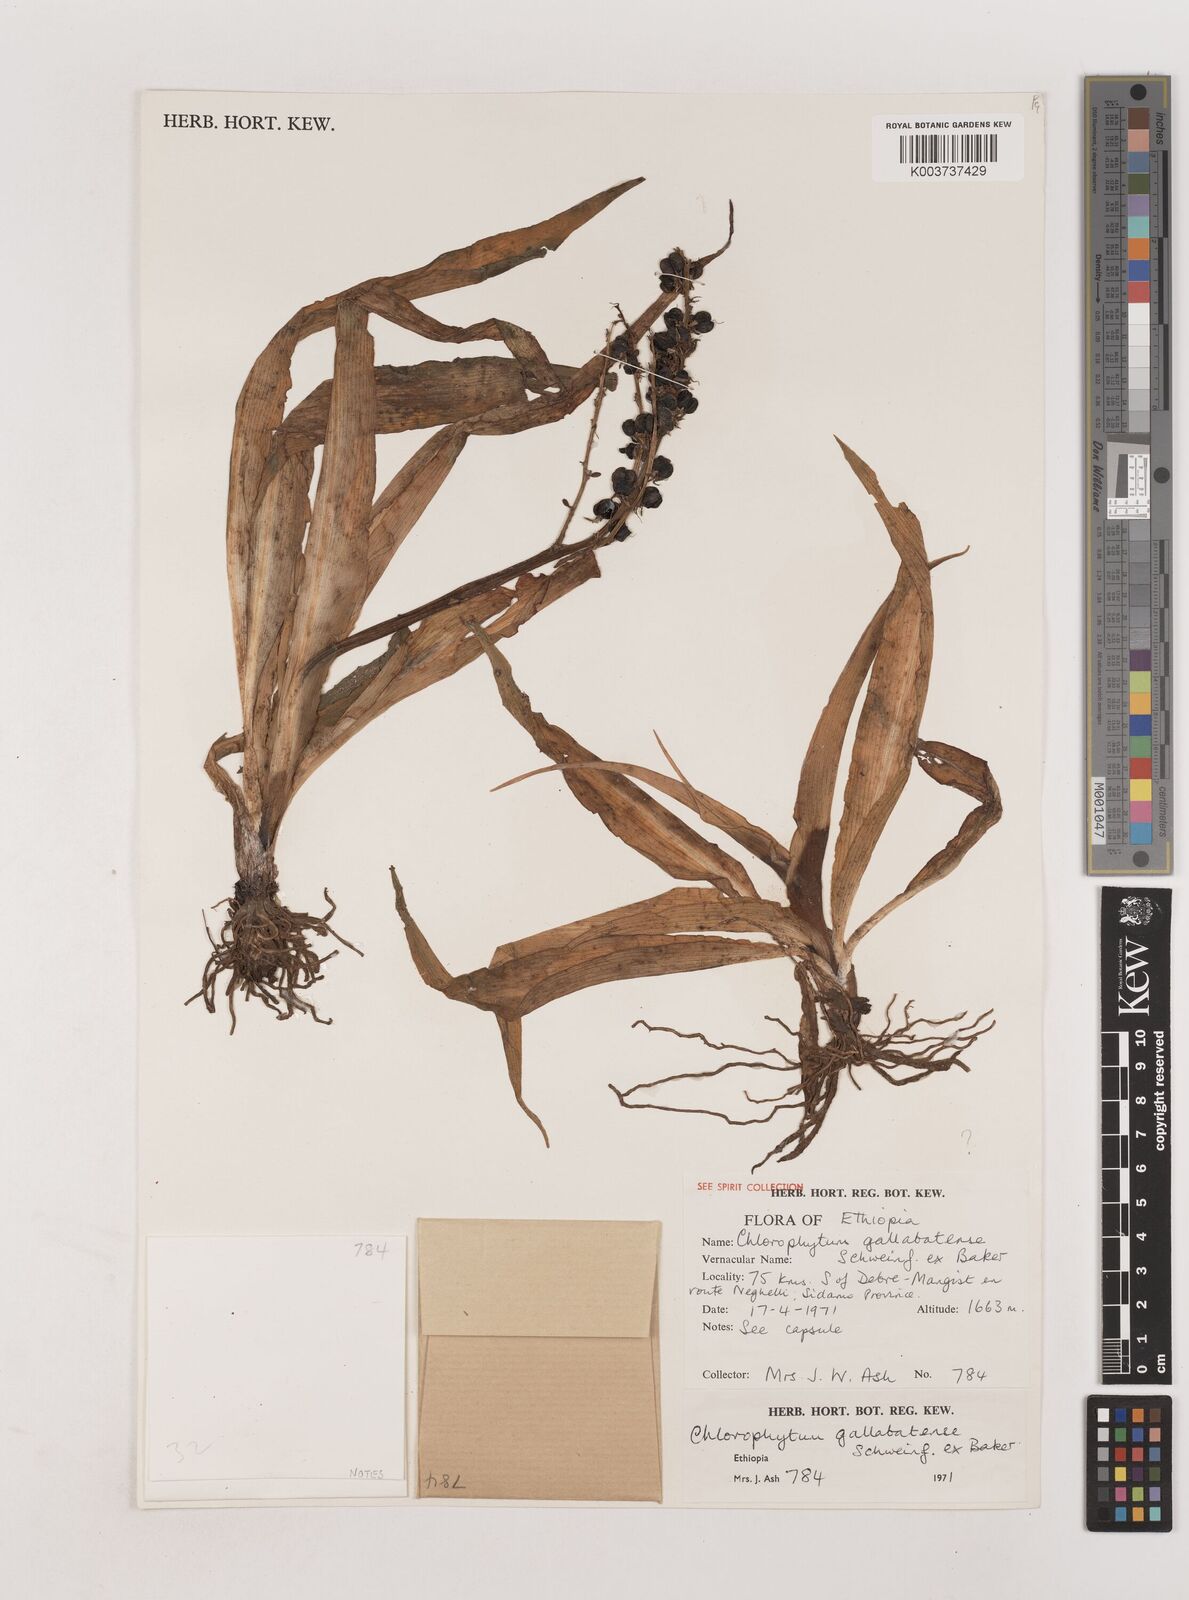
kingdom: Plantae
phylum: Tracheophyta
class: Liliopsida
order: Asparagales
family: Asparagaceae
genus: Chlorophytum
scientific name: Chlorophytum gallabatense
